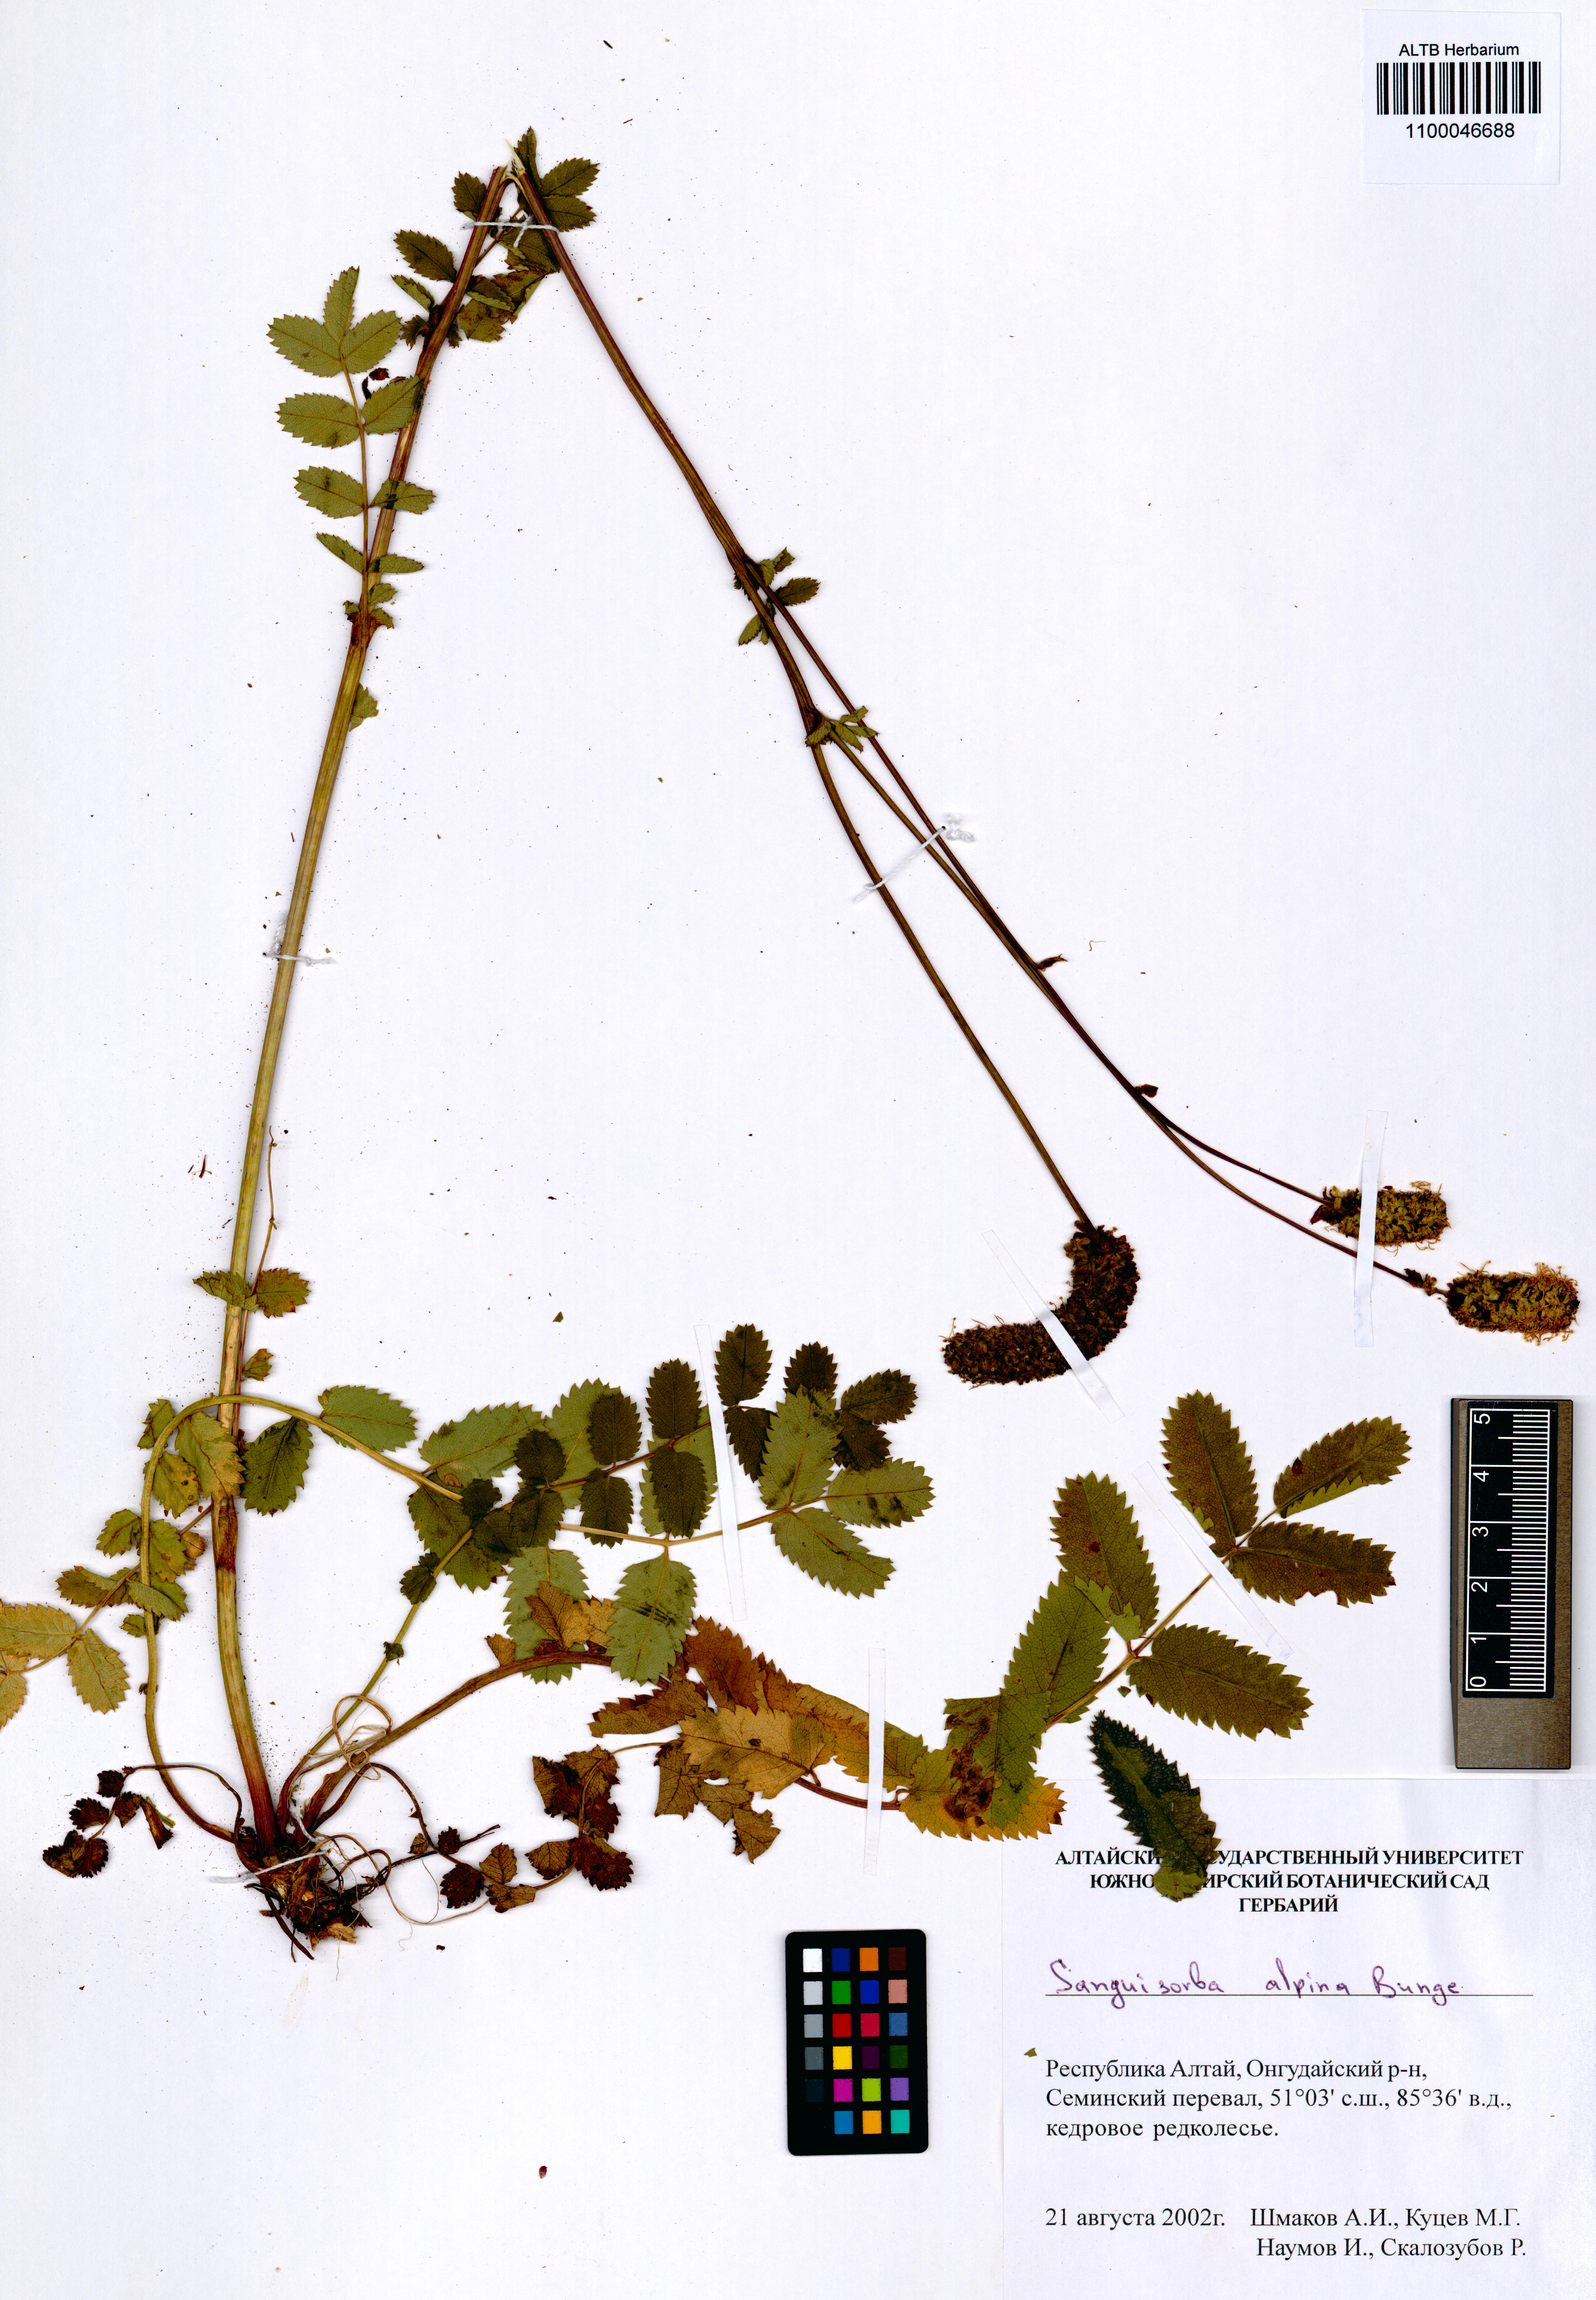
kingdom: Plantae
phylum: Tracheophyta
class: Magnoliopsida
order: Rosales
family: Rosaceae
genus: Sanguisorba
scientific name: Sanguisorba alpina
